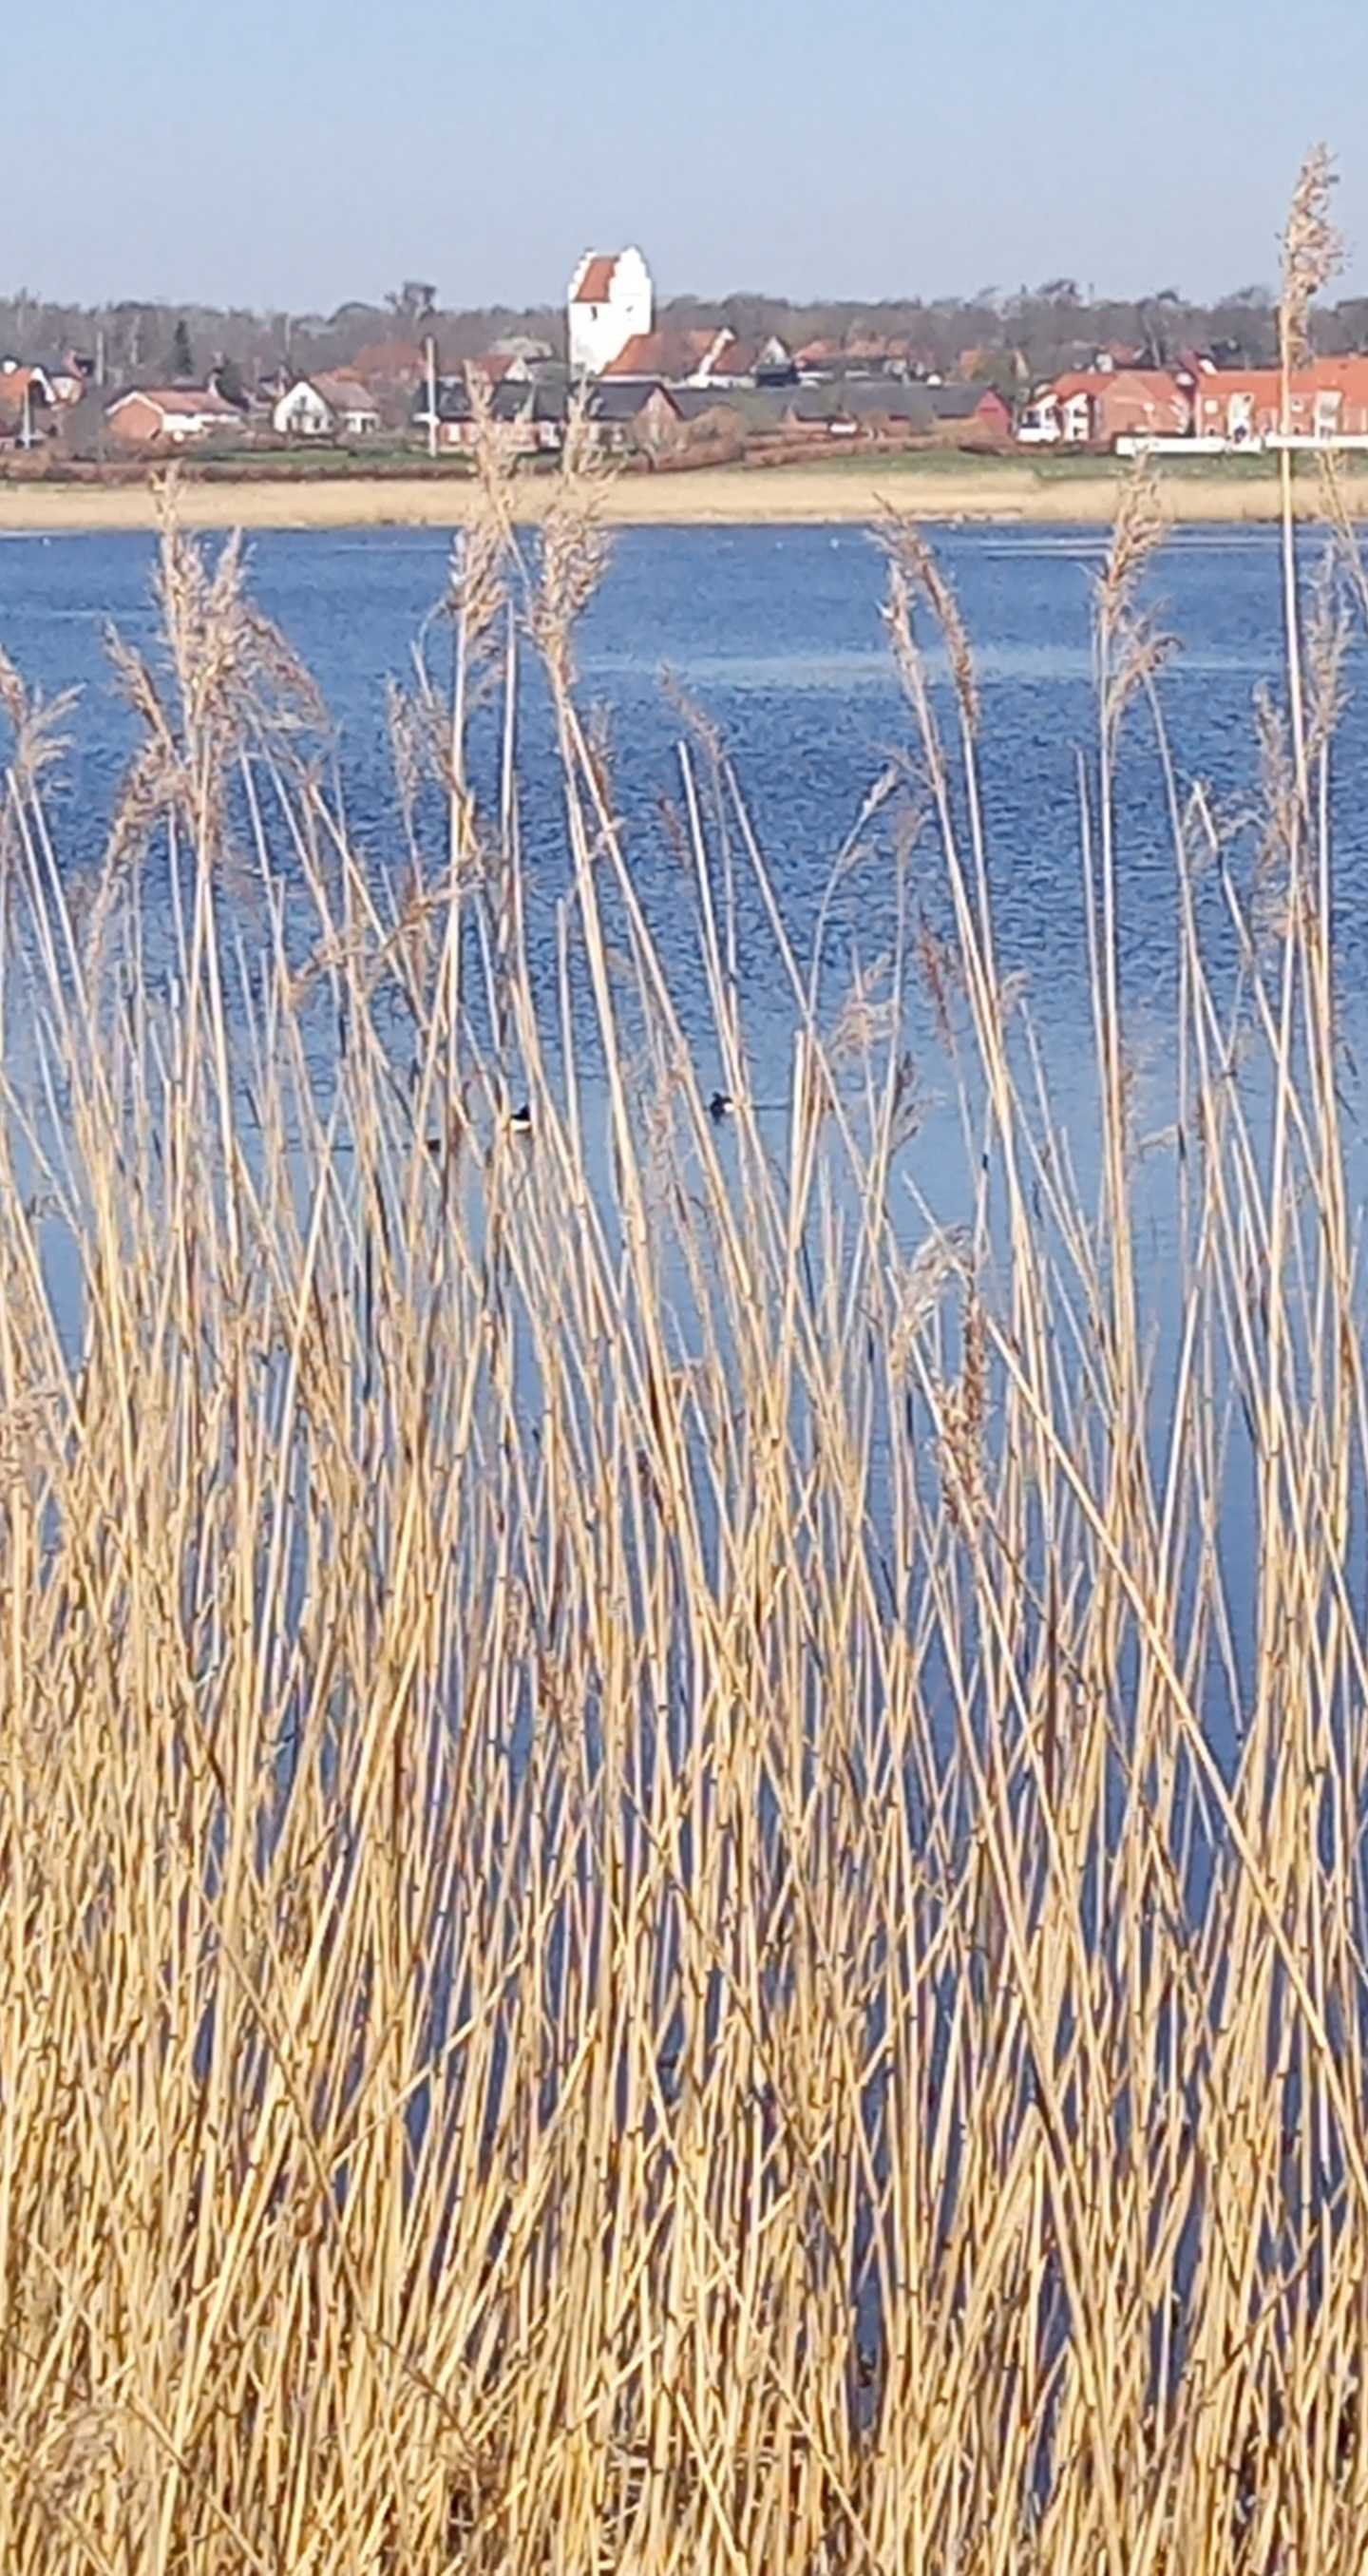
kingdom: Animalia
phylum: Chordata
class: Aves
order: Anseriformes
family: Anatidae
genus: Aythya
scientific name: Aythya fuligula
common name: Troldand
